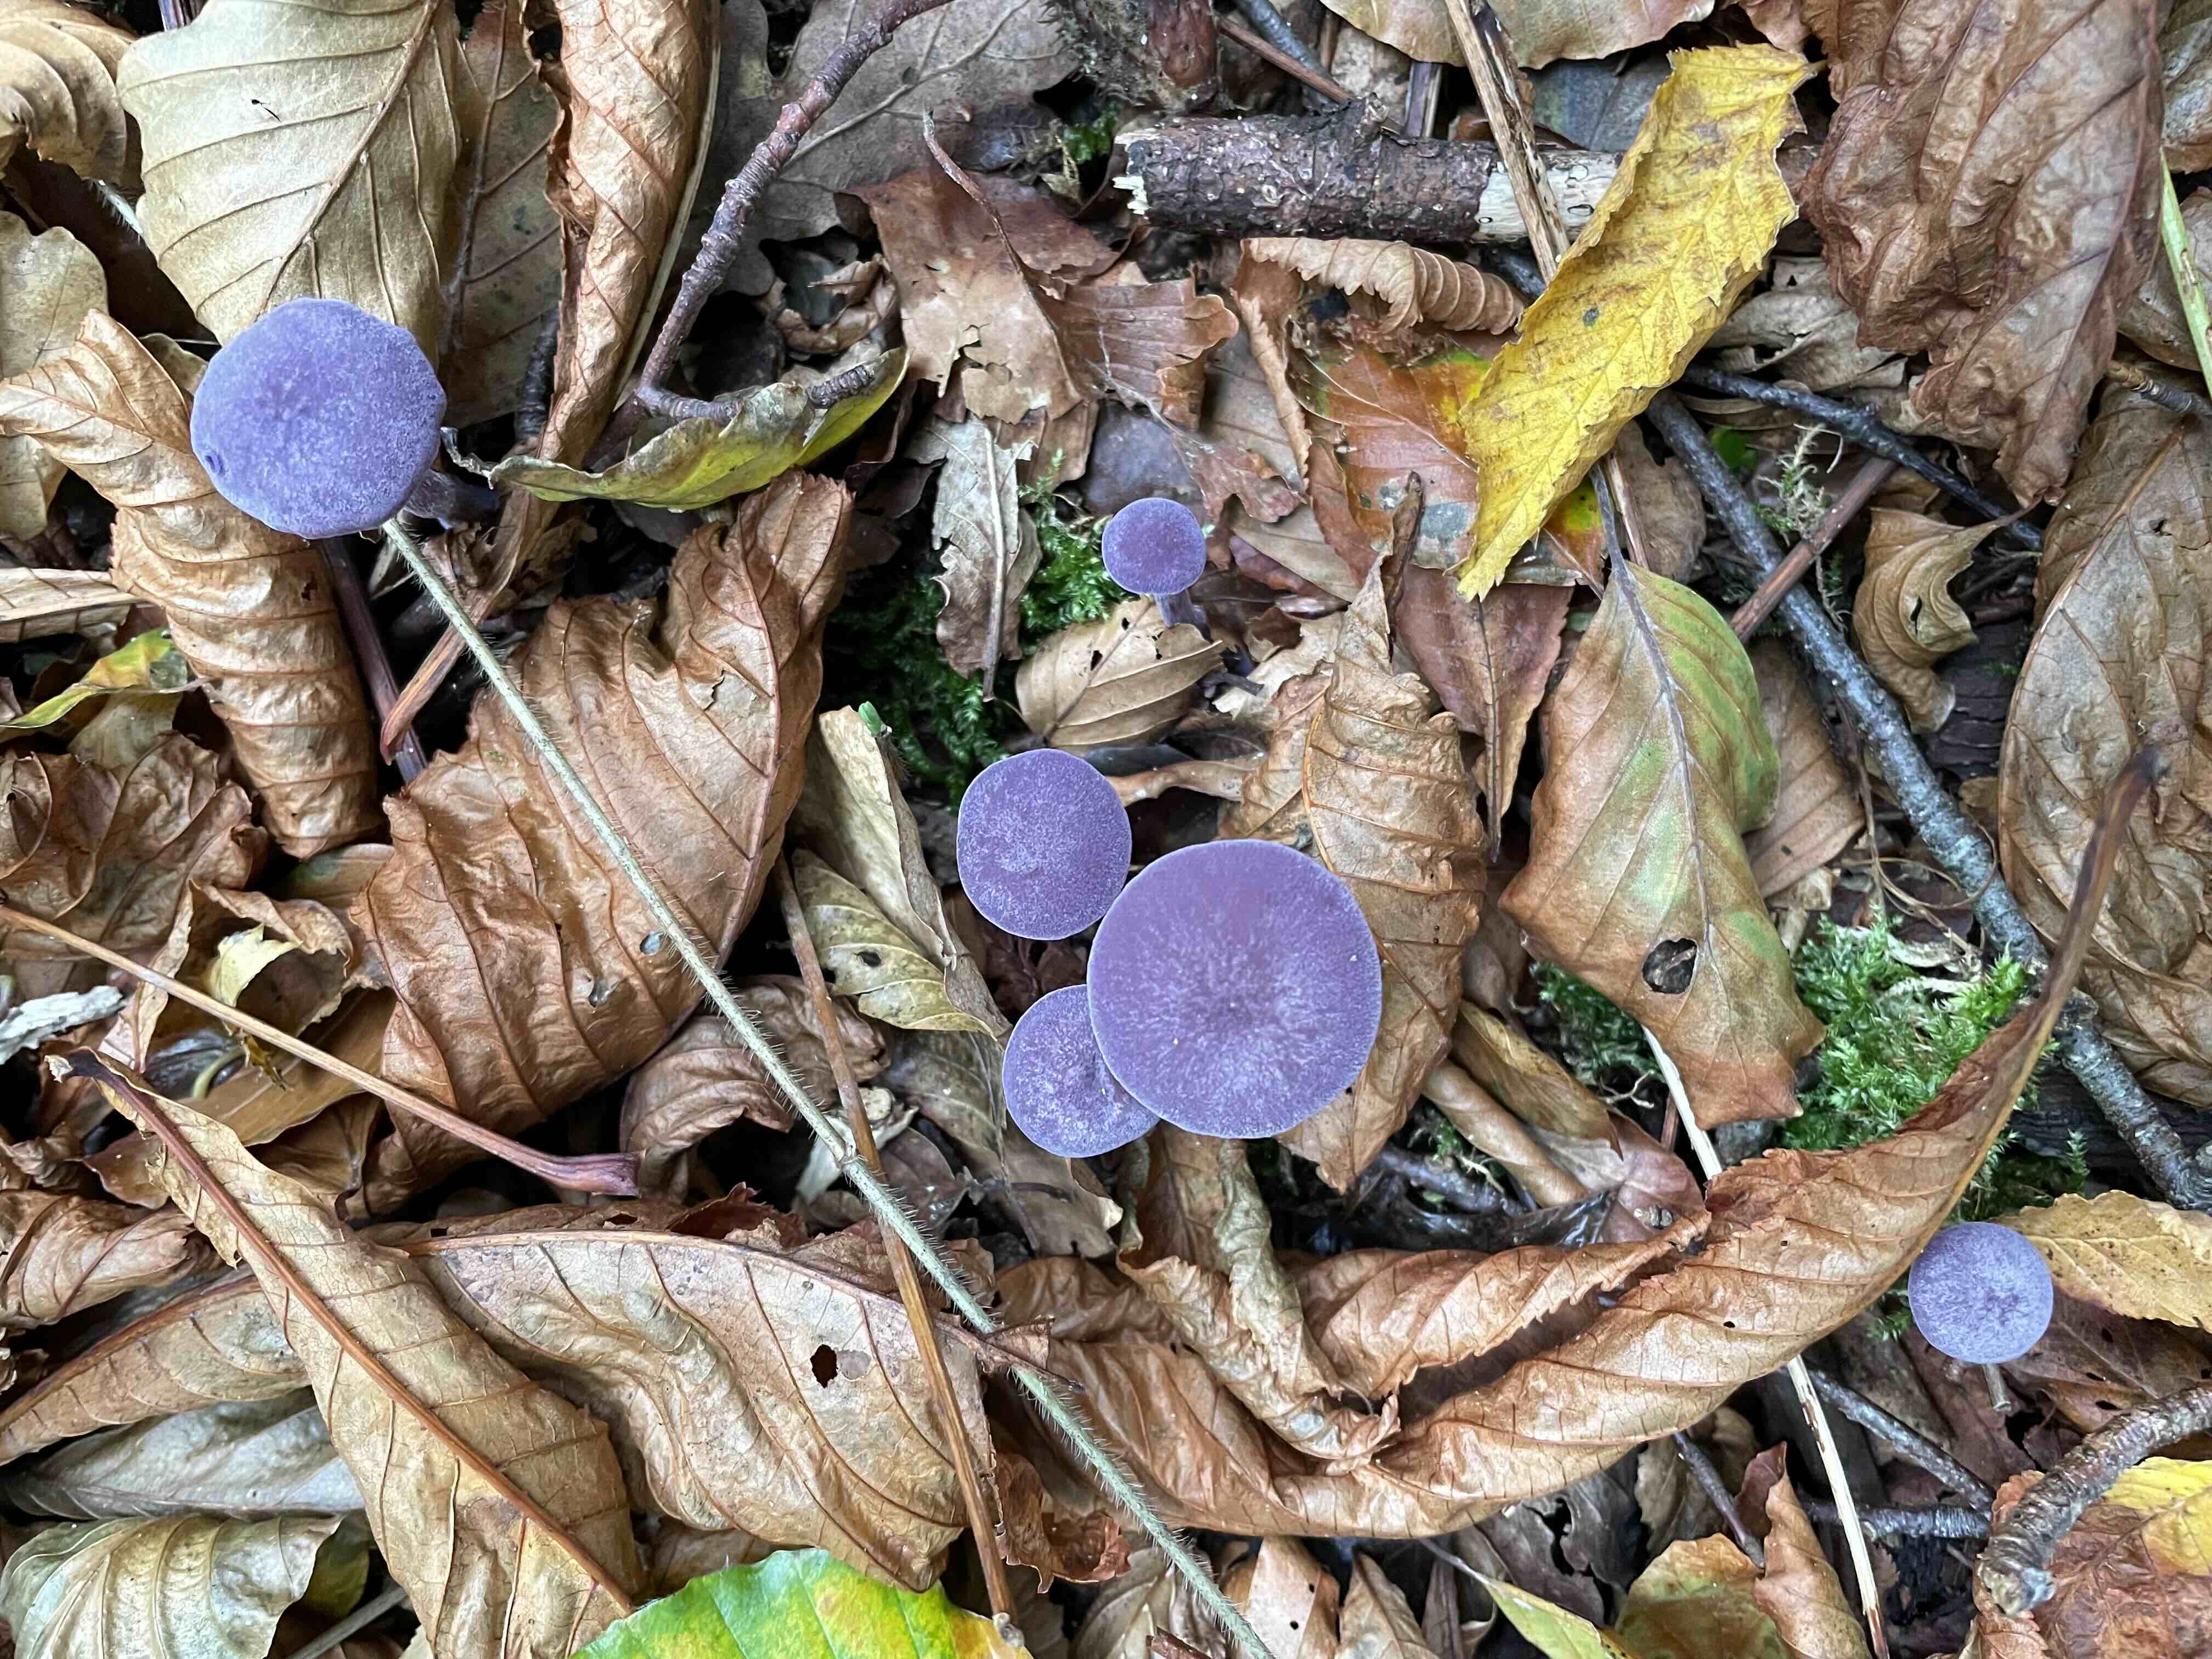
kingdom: Fungi
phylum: Basidiomycota
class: Agaricomycetes
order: Agaricales
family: Hydnangiaceae
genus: Laccaria
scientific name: Laccaria amethystina
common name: violet ametysthat
